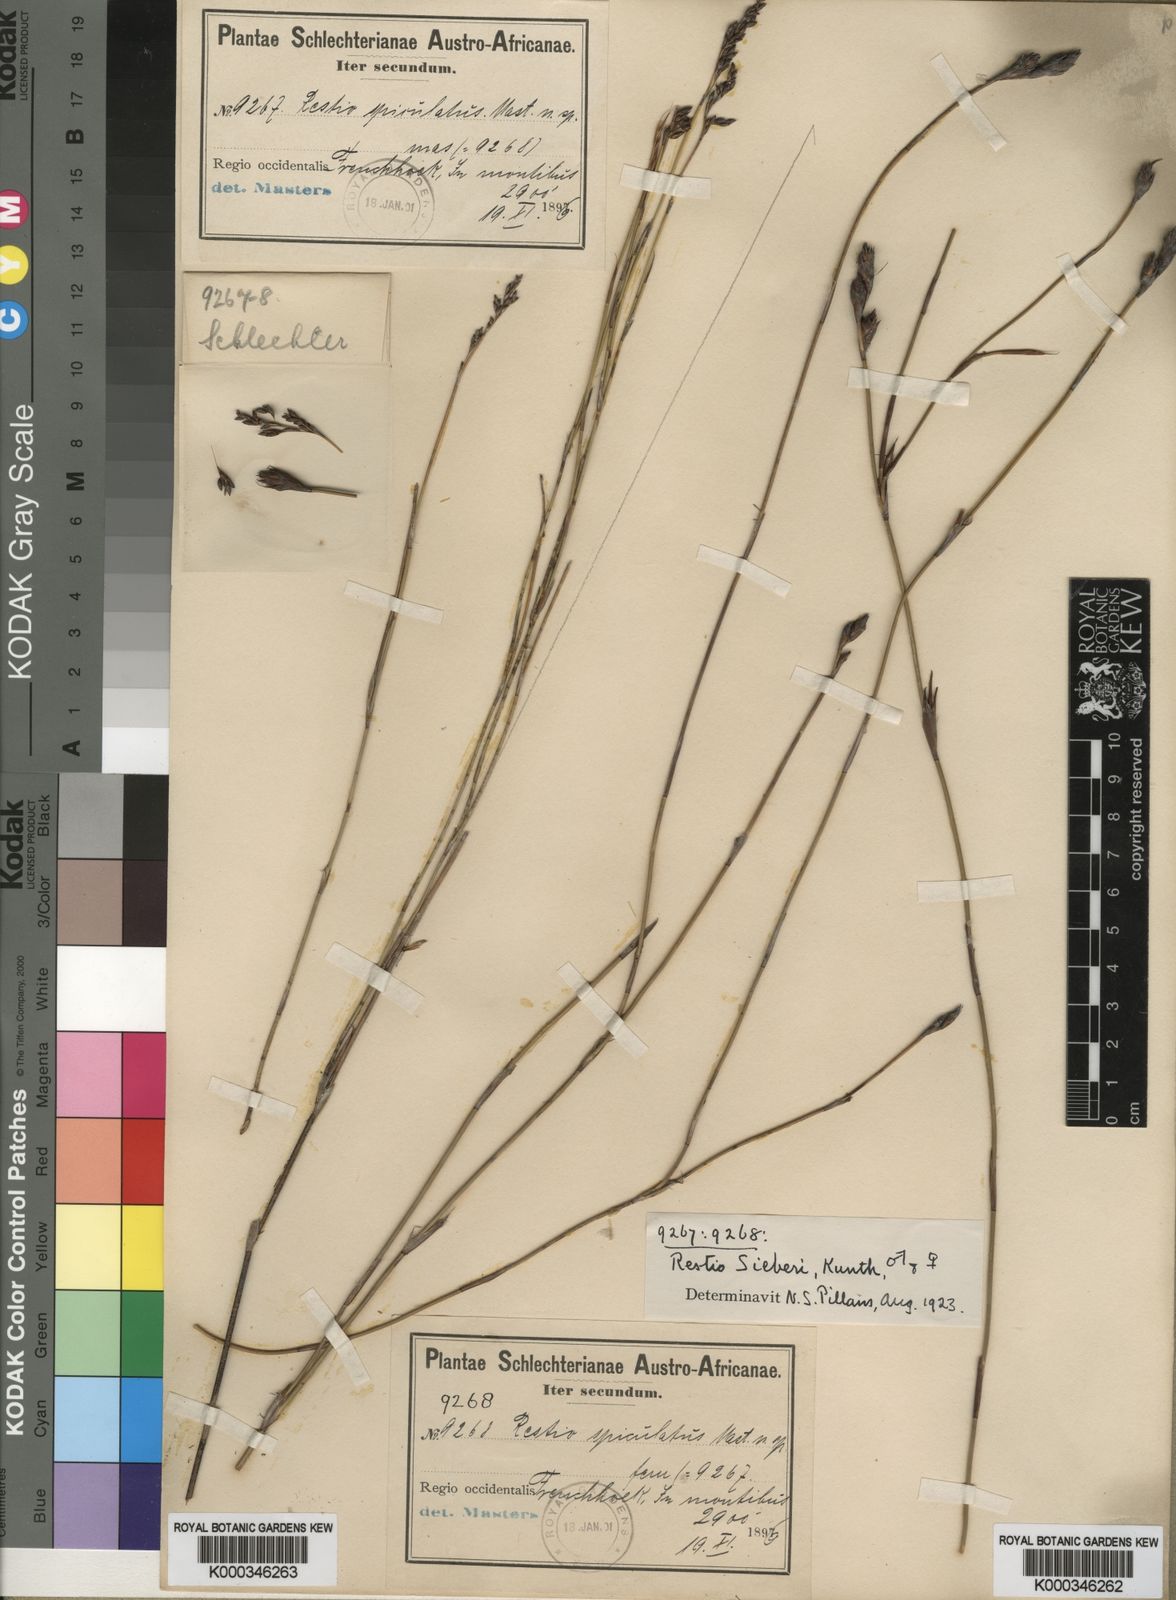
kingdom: Plantae
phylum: Tracheophyta
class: Liliopsida
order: Poales
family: Restionaceae
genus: Restio
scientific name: Restio sieberi
